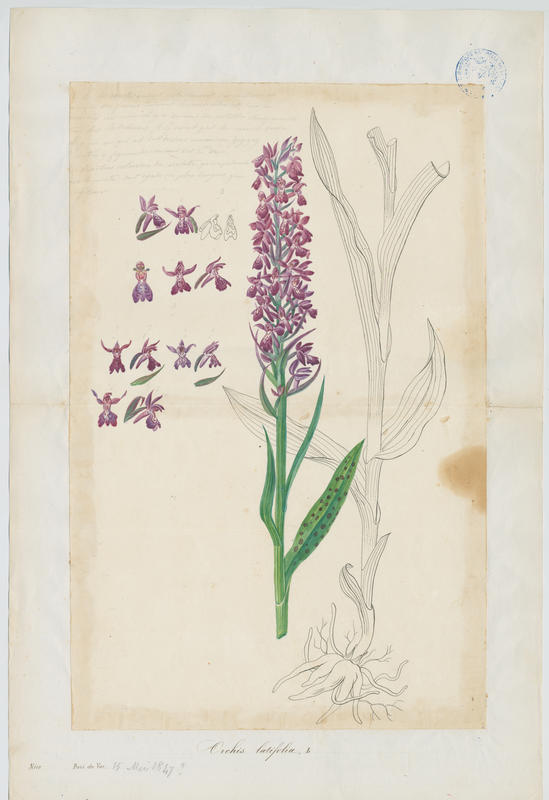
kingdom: Plantae
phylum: Tracheophyta
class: Liliopsida
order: Asparagales
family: Orchidaceae
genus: Dactylorhiza
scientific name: Dactylorhiza sambucina
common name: Elder-flowered orchid
